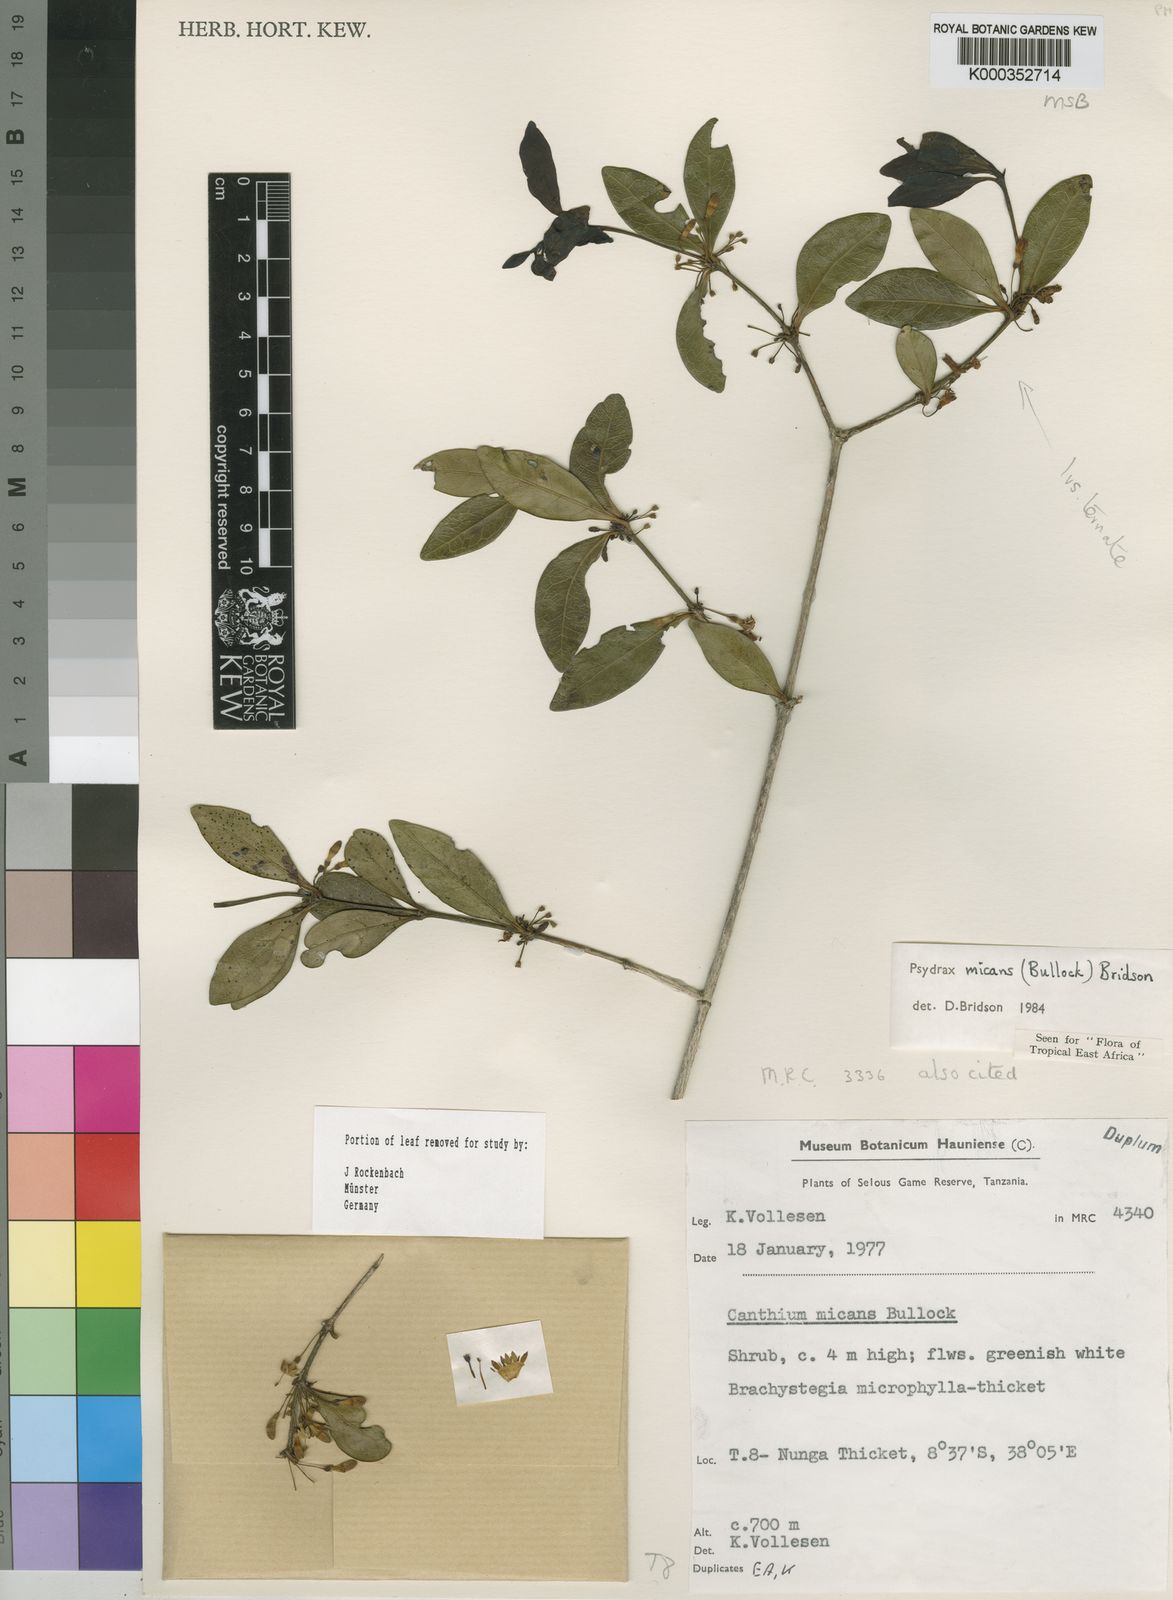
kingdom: Plantae
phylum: Tracheophyta
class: Magnoliopsida
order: Gentianales
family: Rubiaceae
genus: Psydrax
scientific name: Psydrax micans
